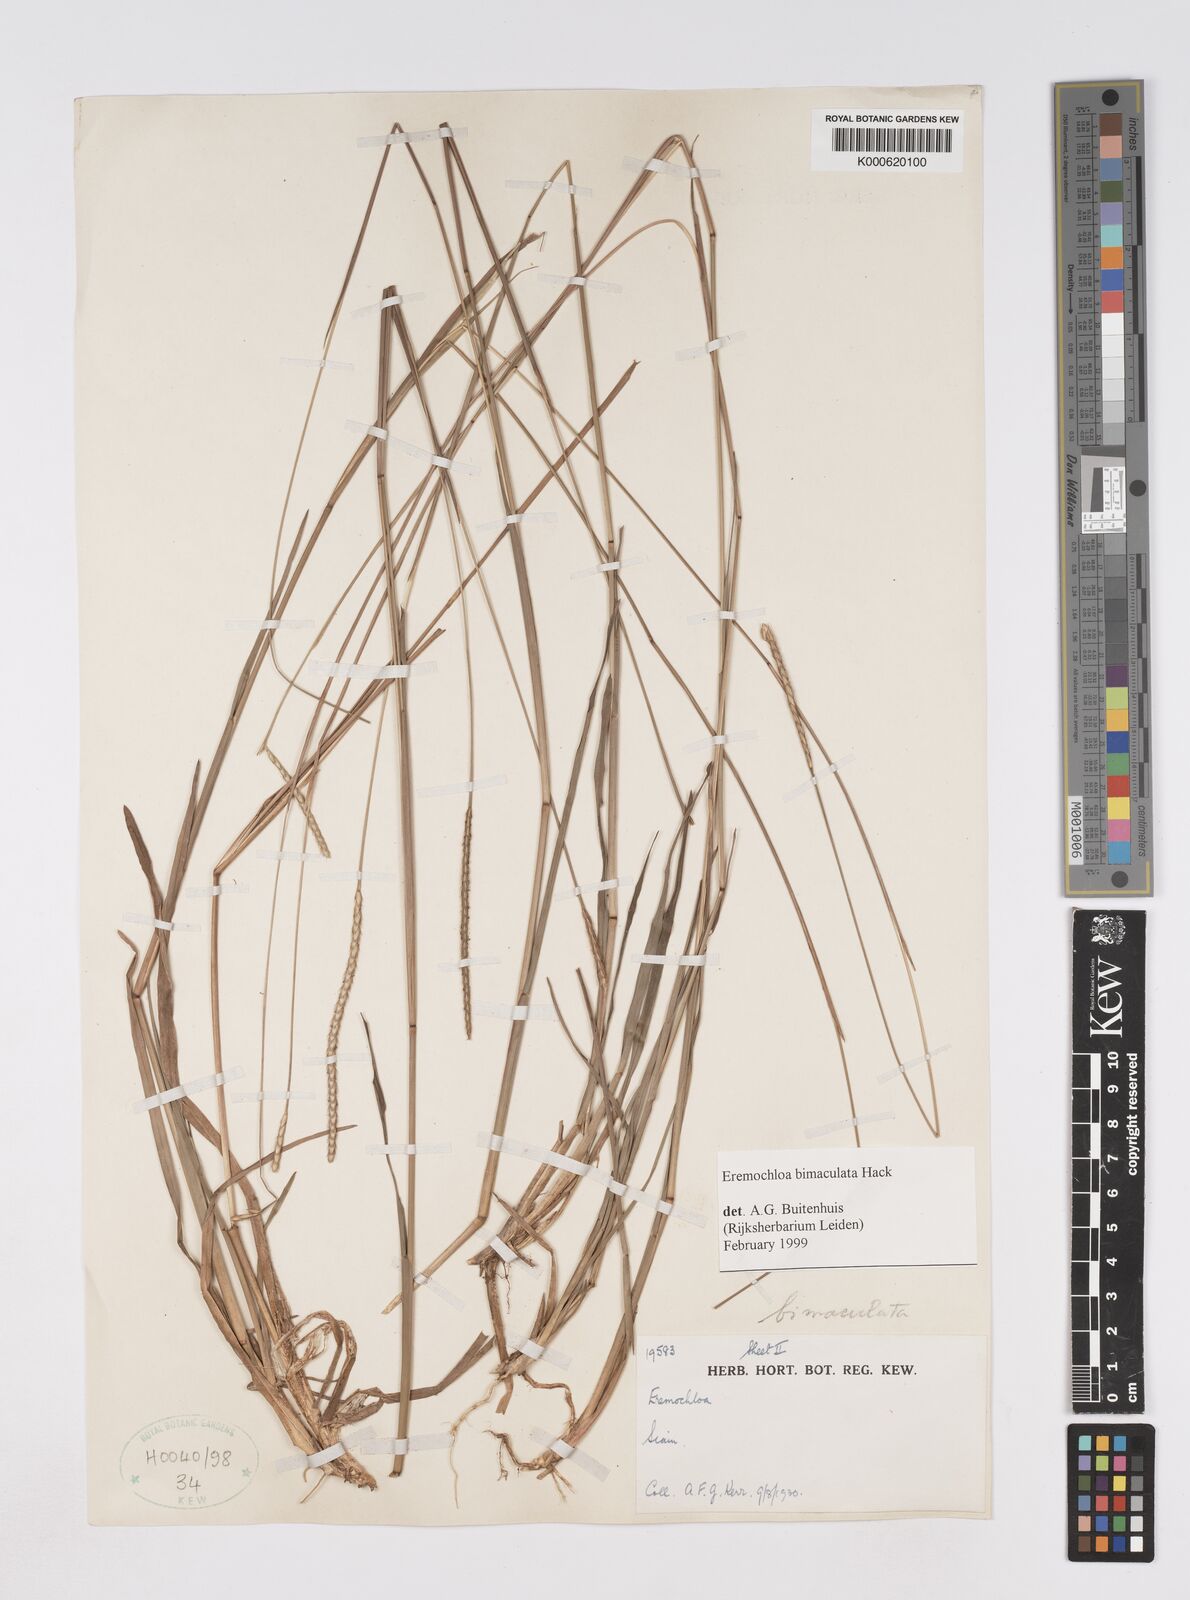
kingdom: Plantae
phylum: Tracheophyta
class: Liliopsida
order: Poales
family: Poaceae
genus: Eremochloa
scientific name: Eremochloa bimaculata
